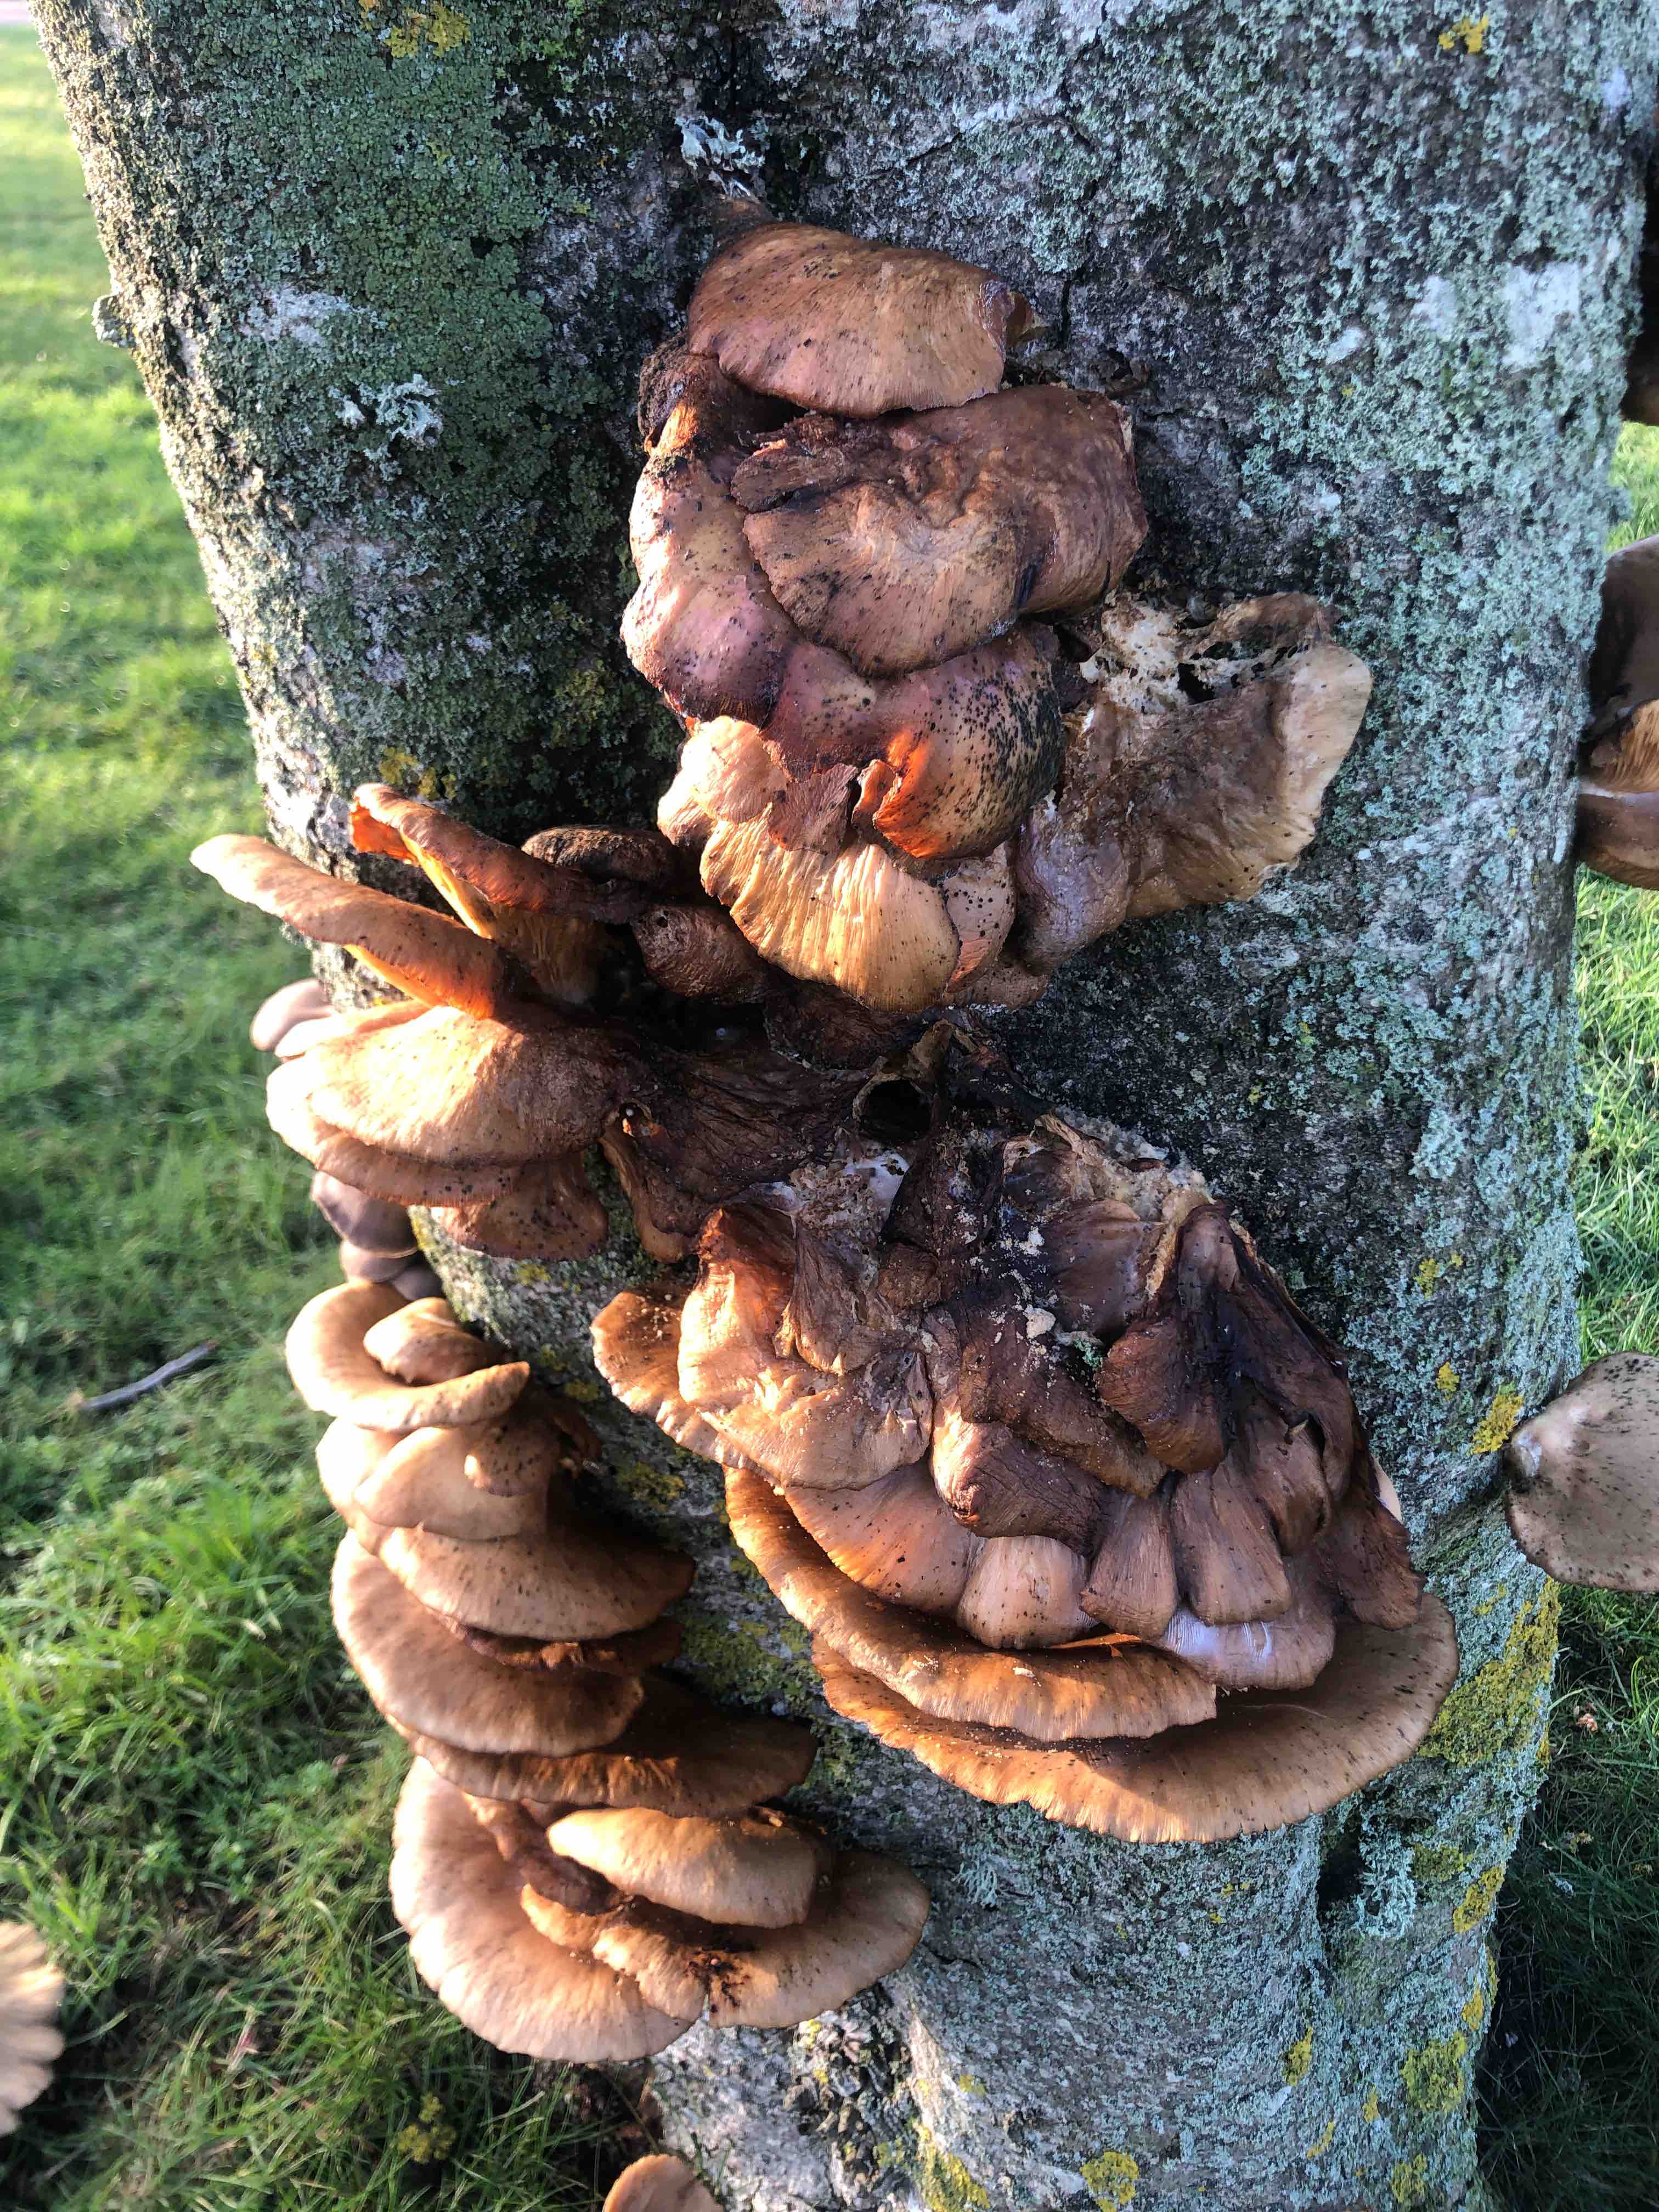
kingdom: Fungi
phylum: Basidiomycota
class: Agaricomycetes
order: Agaricales
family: Pleurotaceae
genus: Pleurotus
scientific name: Pleurotus ostreatus
